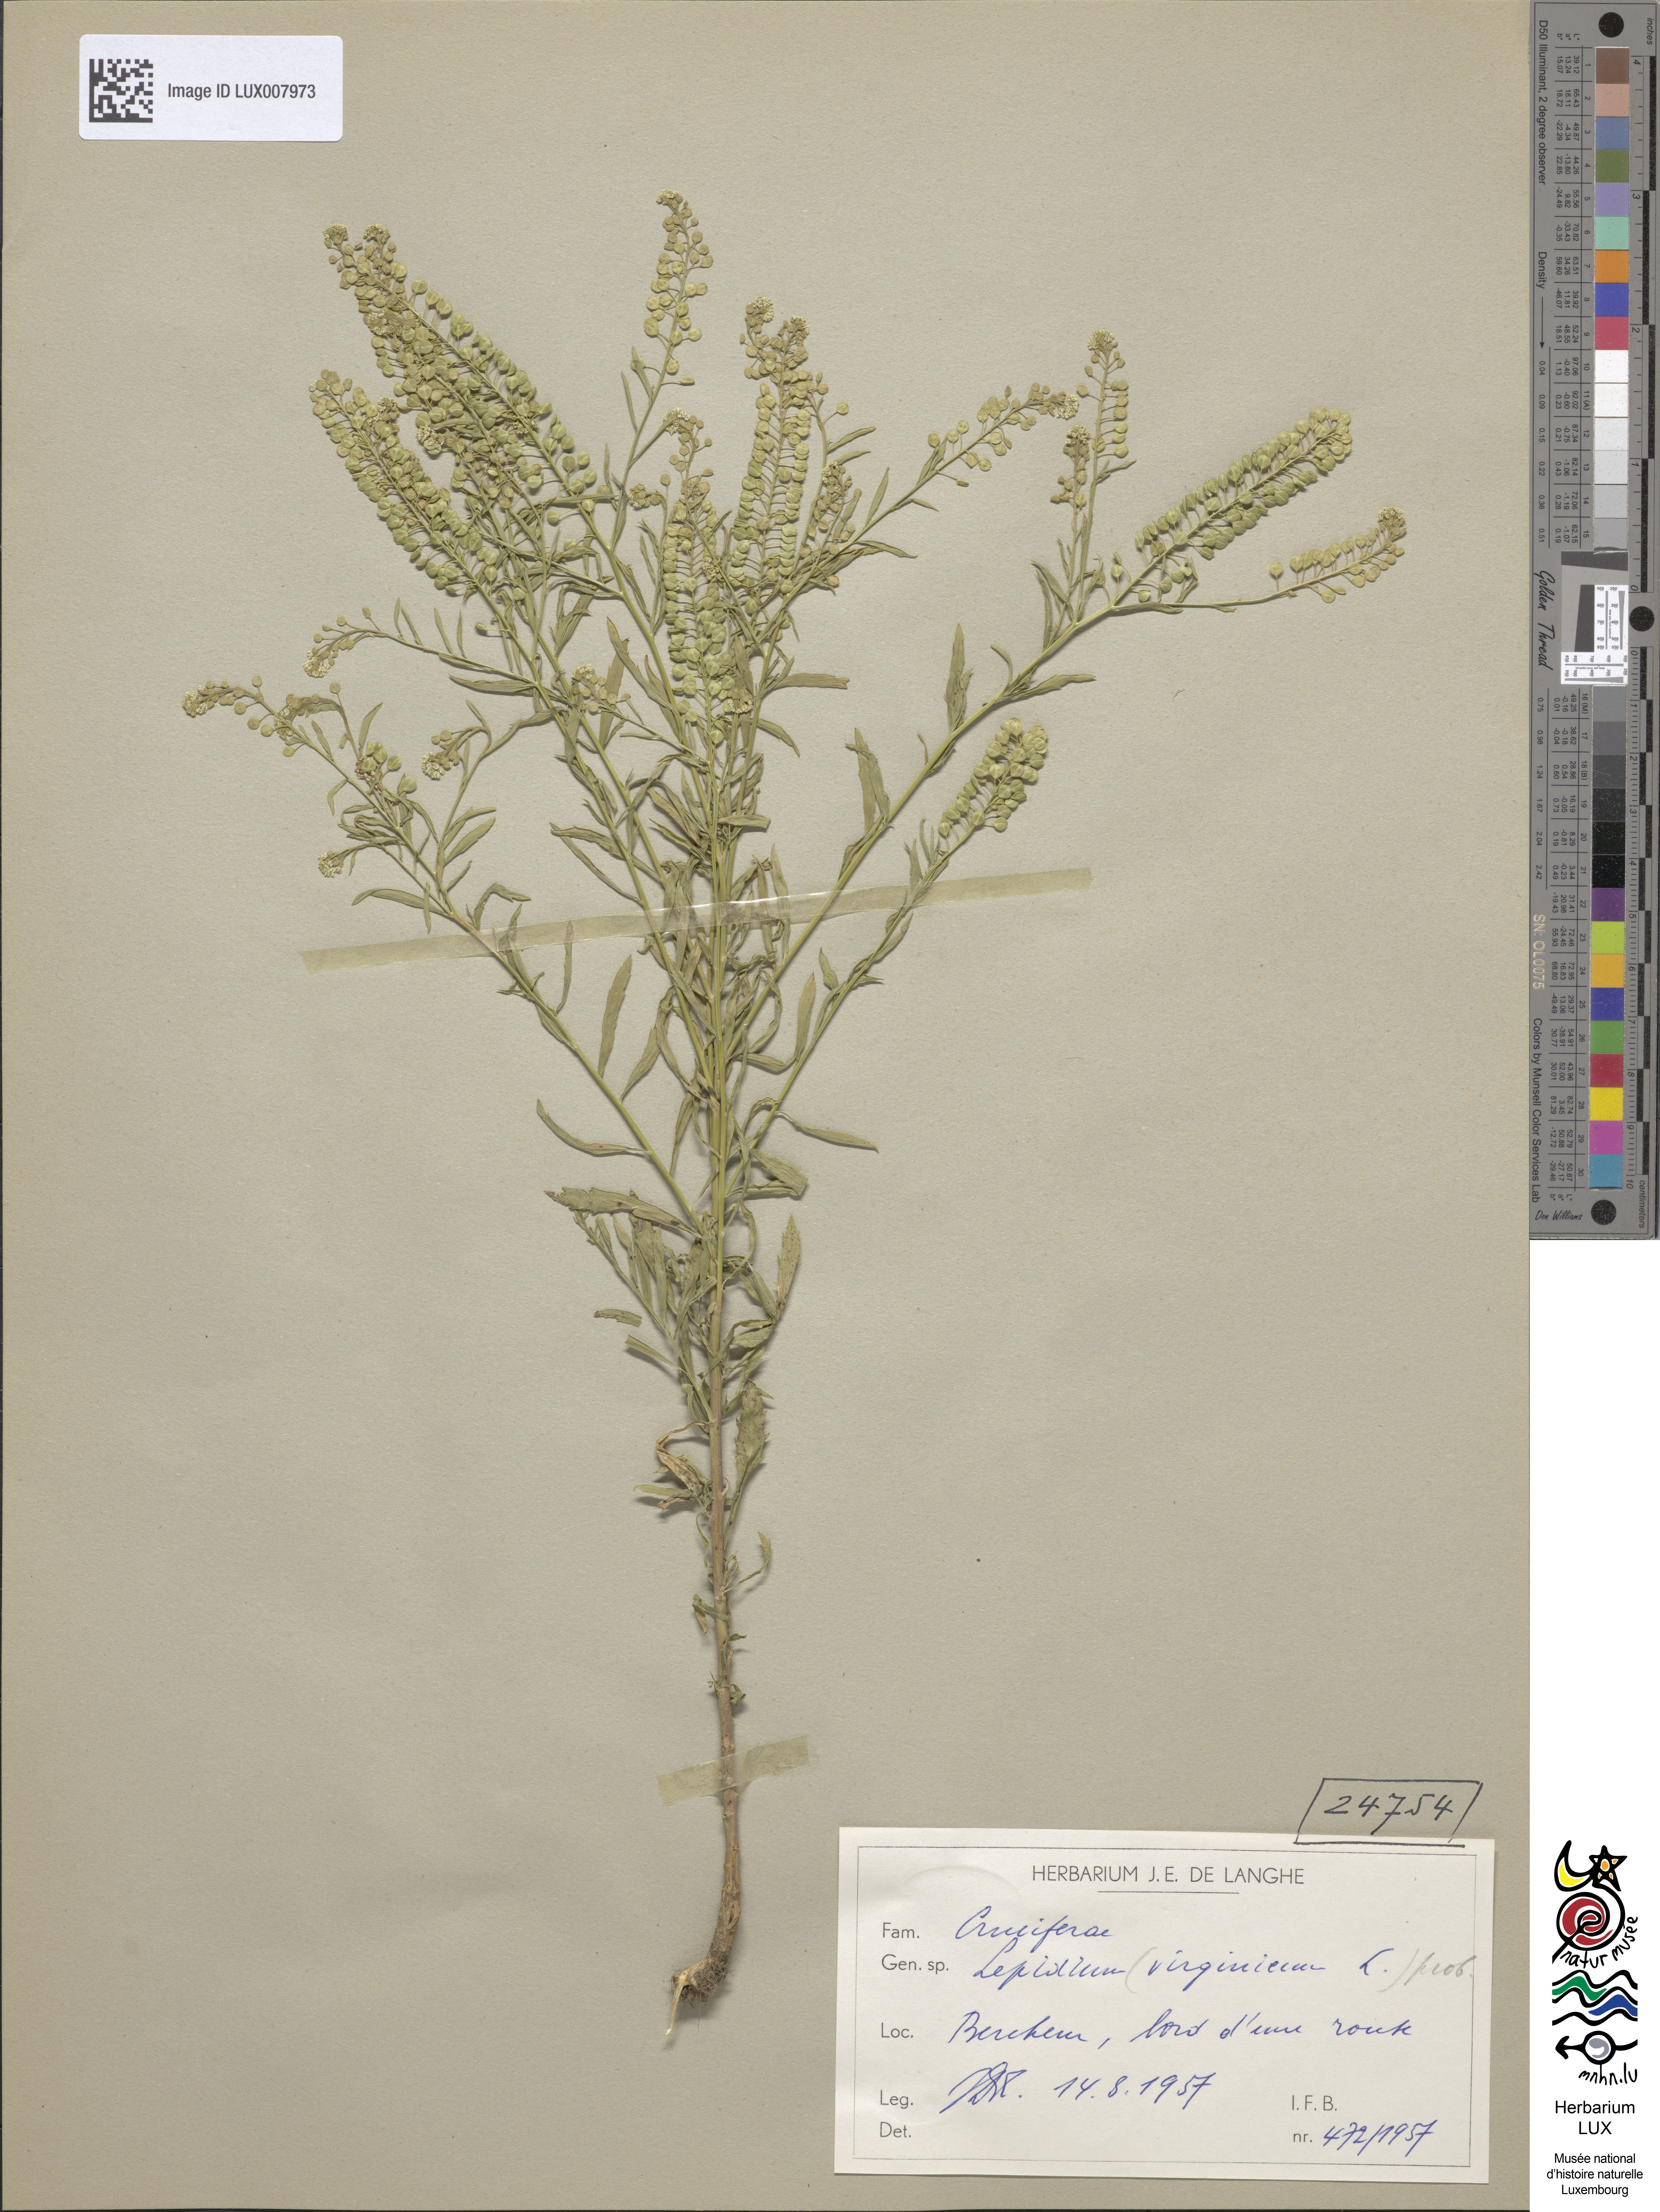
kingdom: Plantae
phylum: Tracheophyta
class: Magnoliopsida
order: Brassicales
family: Brassicaceae
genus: Lepidium
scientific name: Lepidium virginicum
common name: Least pepperwort
